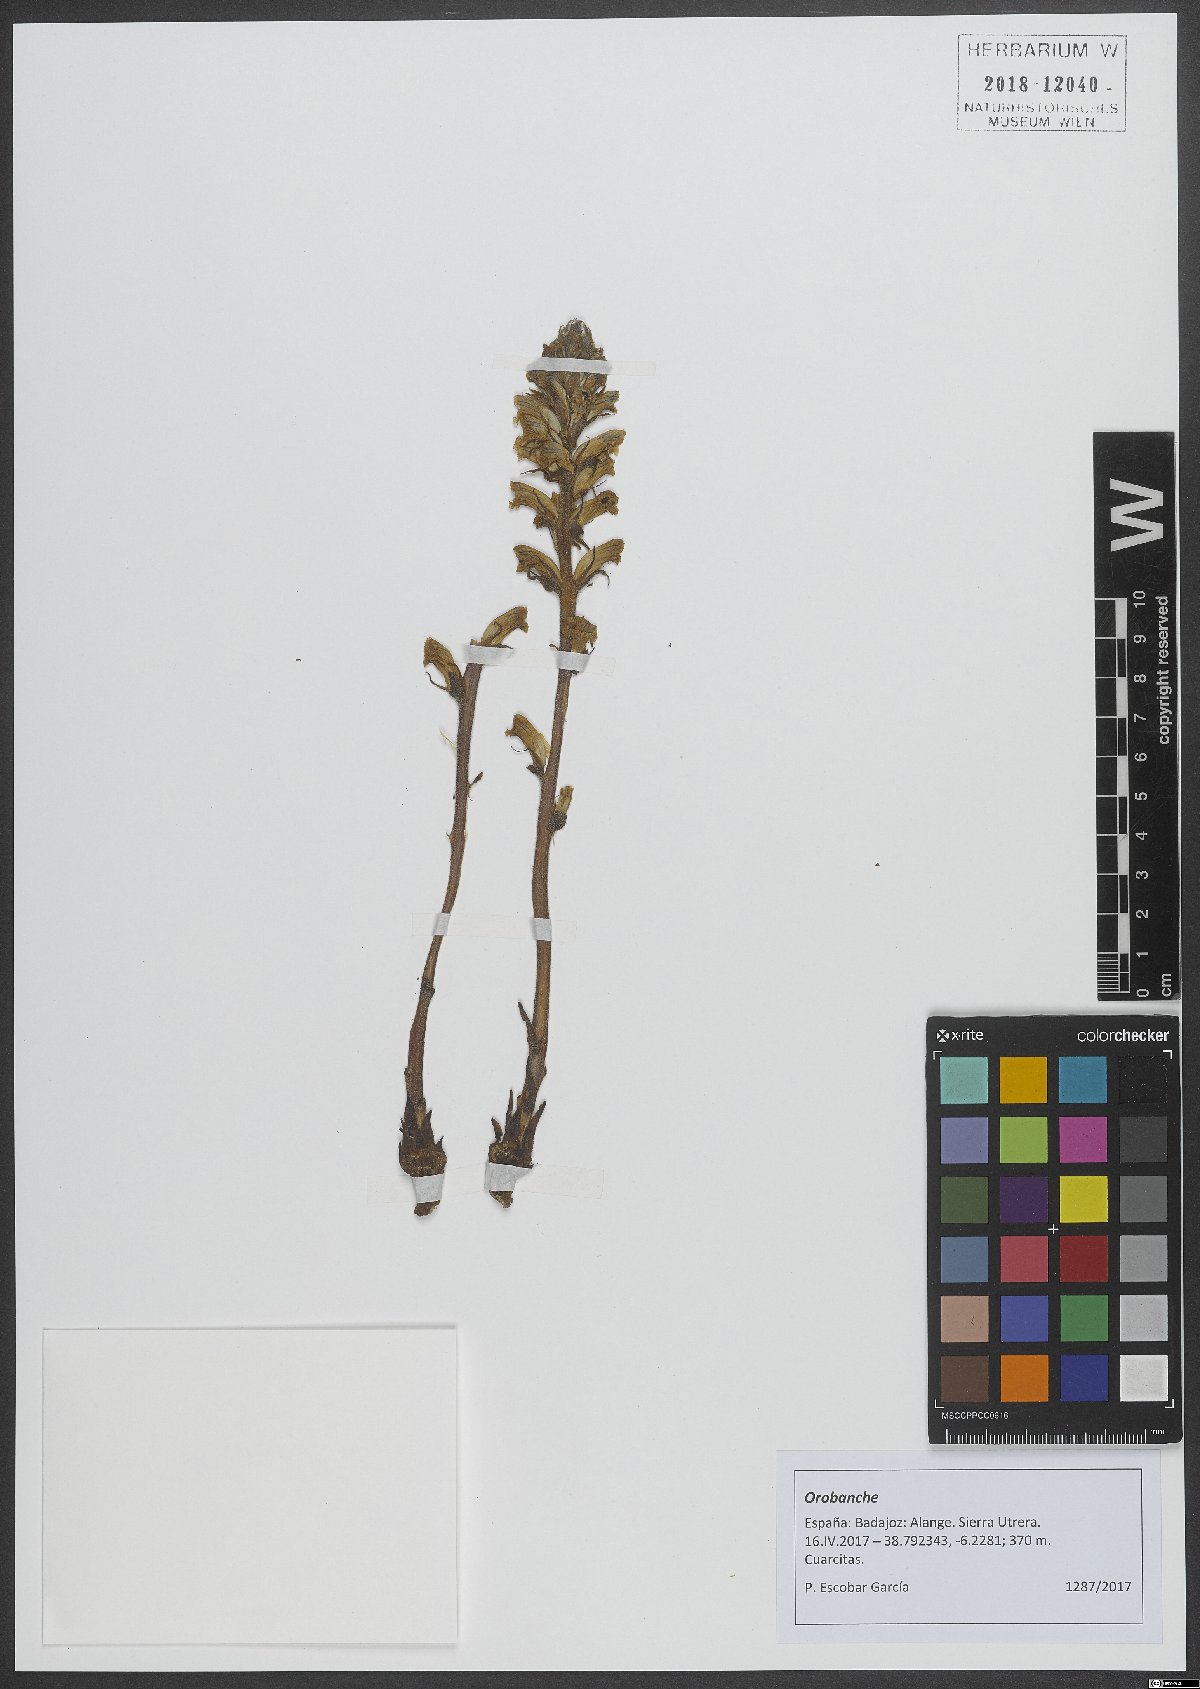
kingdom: Plantae
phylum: Tracheophyta
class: Magnoliopsida
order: Lamiales
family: Orobanchaceae
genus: Orobanche
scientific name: Orobanche
